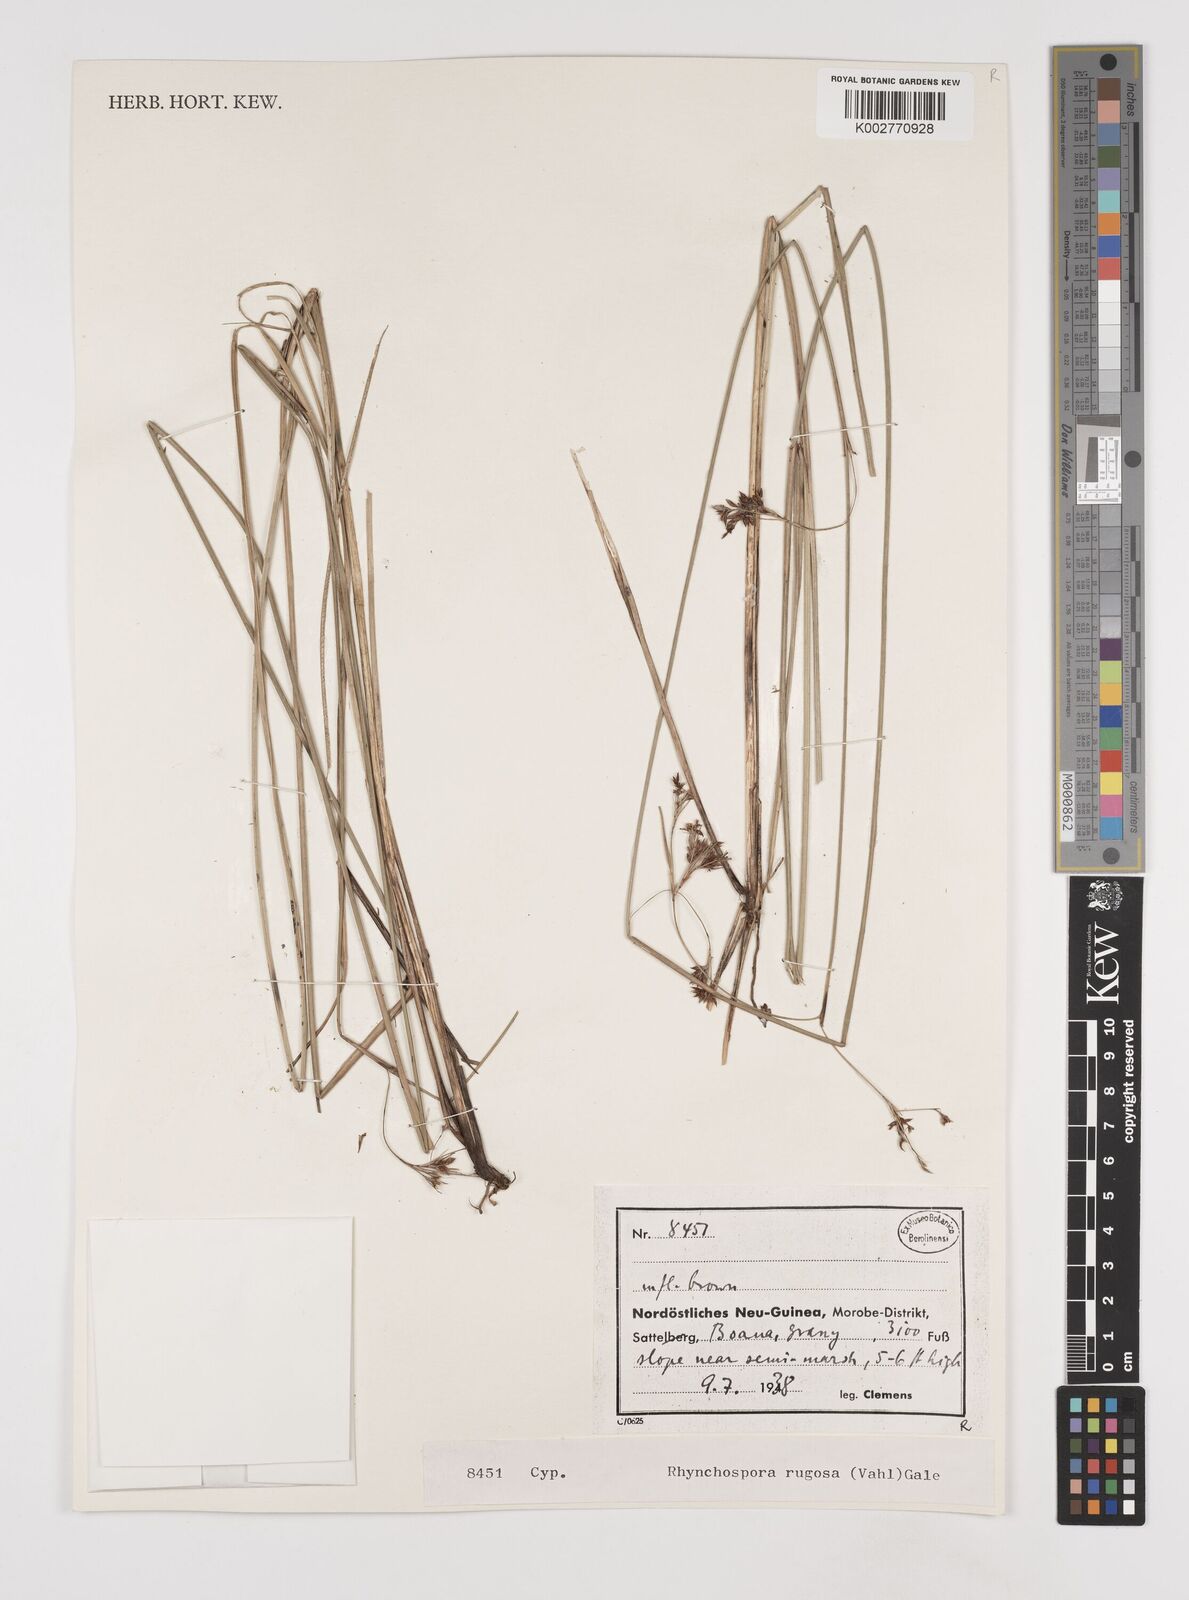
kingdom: Plantae
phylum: Tracheophyta
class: Liliopsida
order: Poales
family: Cyperaceae
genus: Rhynchospora
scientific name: Rhynchospora rugosa
